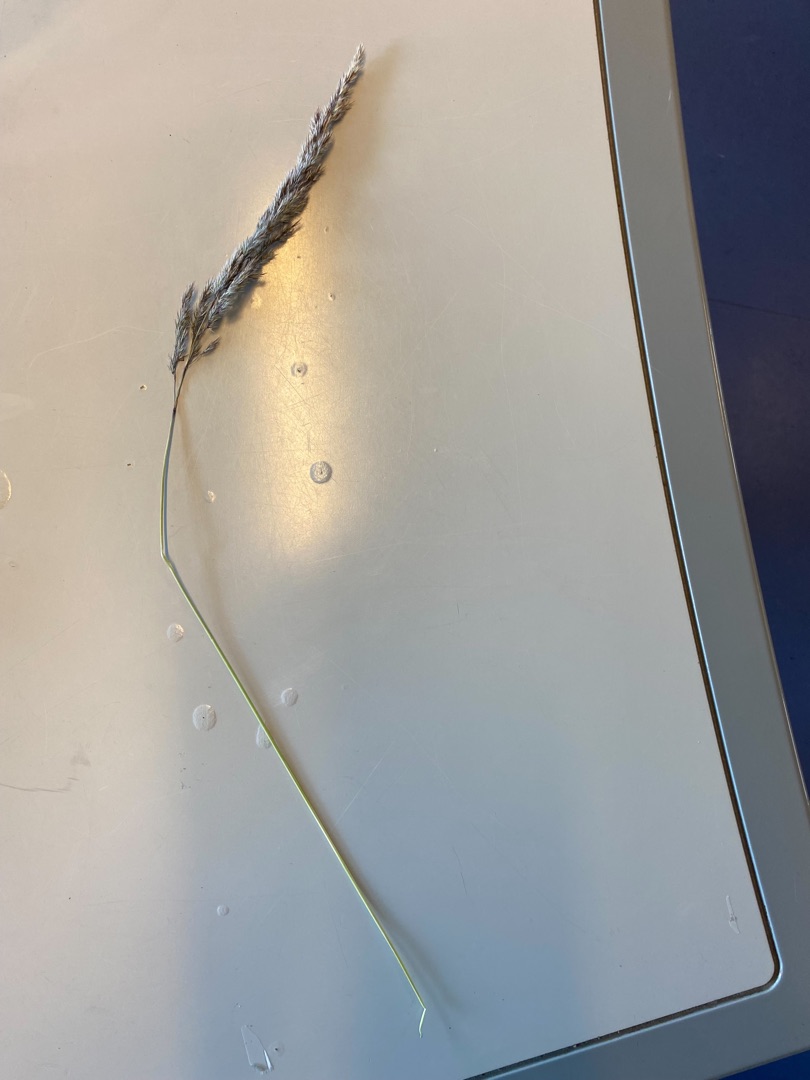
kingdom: Plantae
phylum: Tracheophyta
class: Liliopsida
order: Poales
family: Poaceae
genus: Calamagrostis
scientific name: Calamagrostis epigejos
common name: Bjerg-rørhvene
